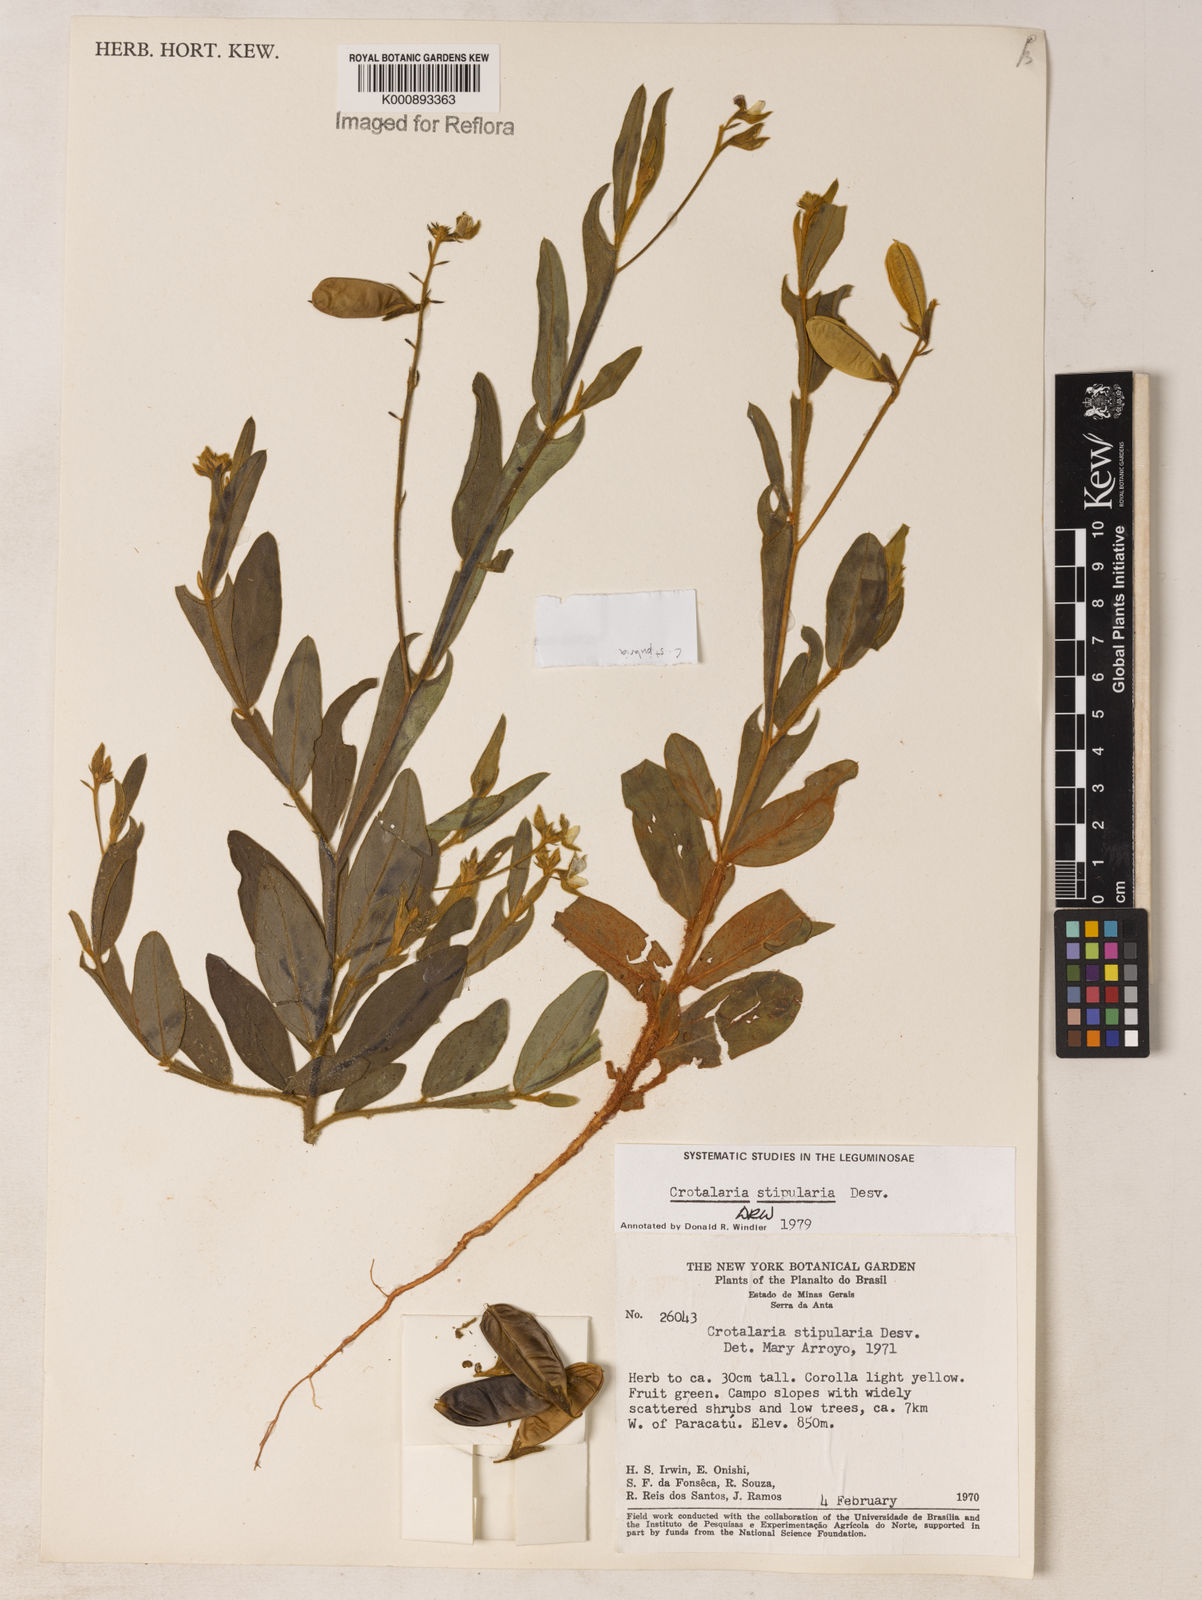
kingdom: Plantae
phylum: Tracheophyta
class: Magnoliopsida
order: Fabales
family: Fabaceae
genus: Crotalaria
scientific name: Crotalaria stipularia
